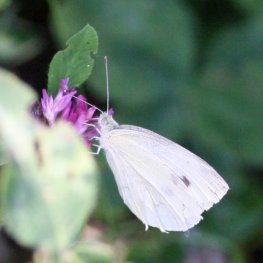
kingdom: Animalia
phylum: Arthropoda
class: Insecta
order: Lepidoptera
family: Pieridae
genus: Pieris
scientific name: Pieris rapae
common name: Cabbage White
